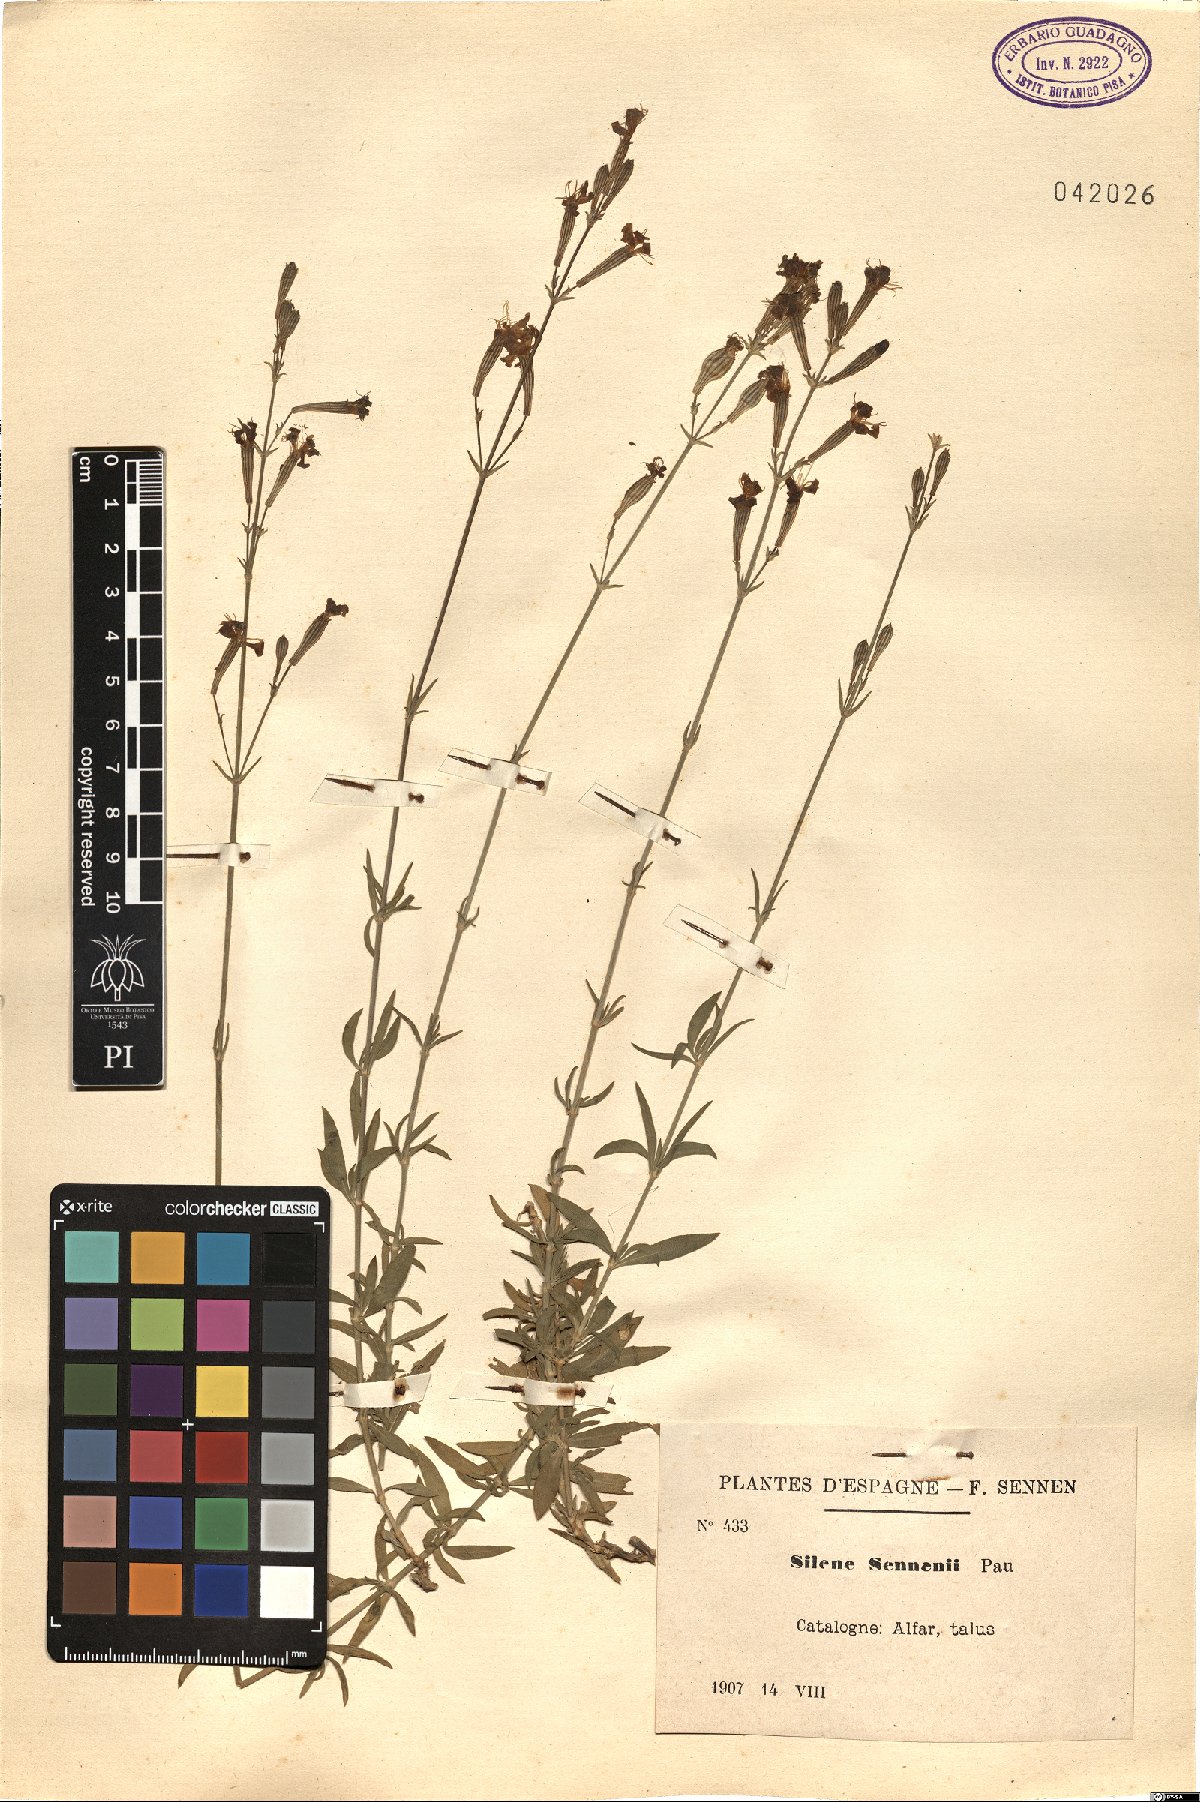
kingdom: Plantae
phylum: Tracheophyta
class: Magnoliopsida
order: Caryophyllales
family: Caryophyllaceae
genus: Silene
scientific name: Silene sennenii
